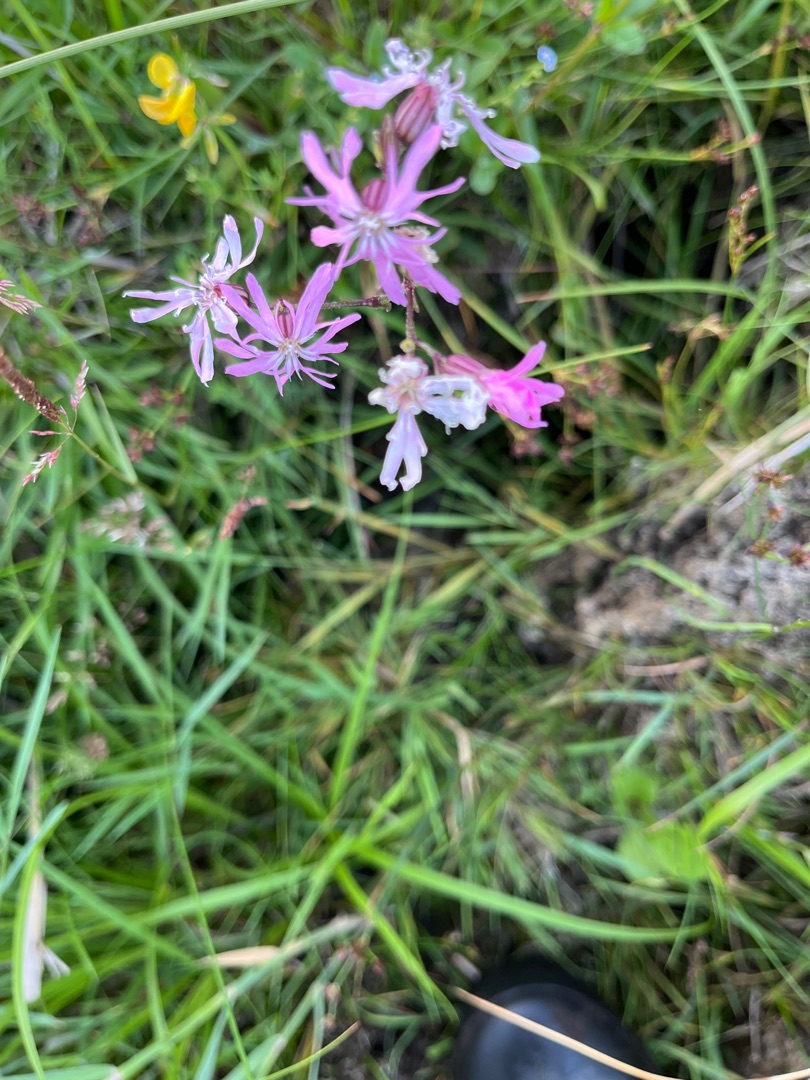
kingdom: Plantae
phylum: Tracheophyta
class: Magnoliopsida
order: Caryophyllales
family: Caryophyllaceae
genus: Silene
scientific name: Silene flos-cuculi
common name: Trævlekrone
